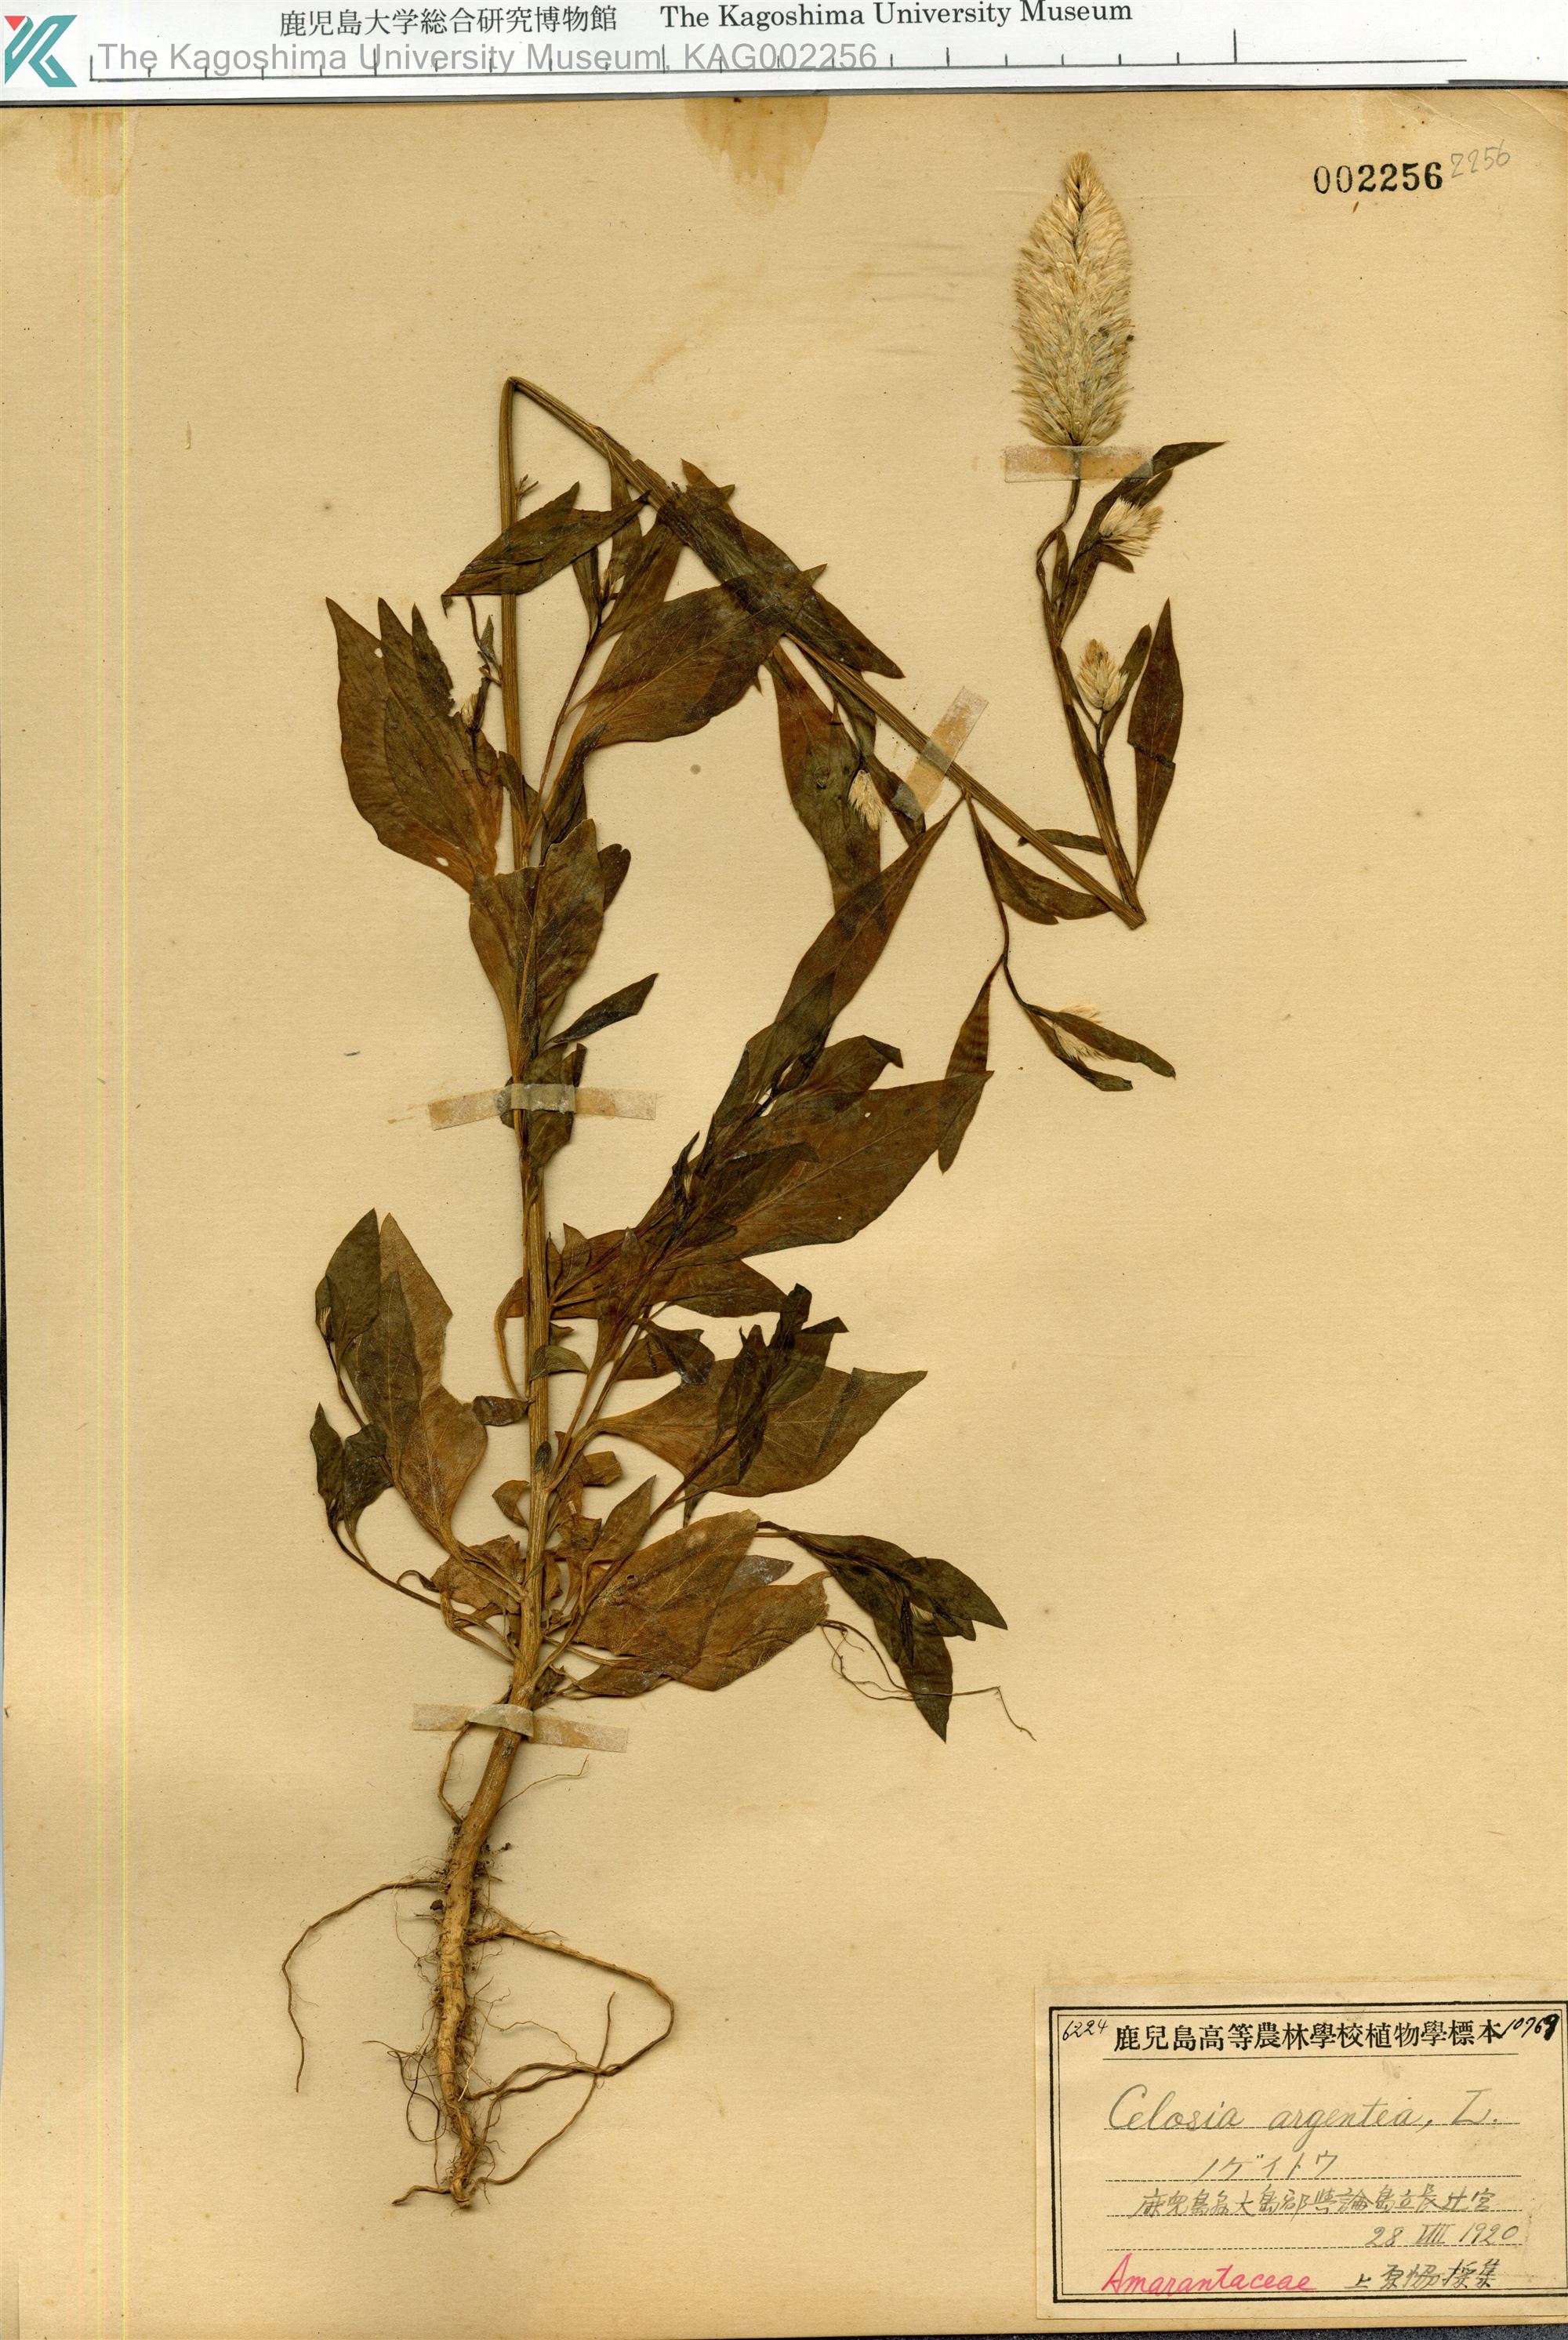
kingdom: Plantae
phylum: Tracheophyta
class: Magnoliopsida
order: Caryophyllales
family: Amaranthaceae
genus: Celosia
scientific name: Celosia argentea
